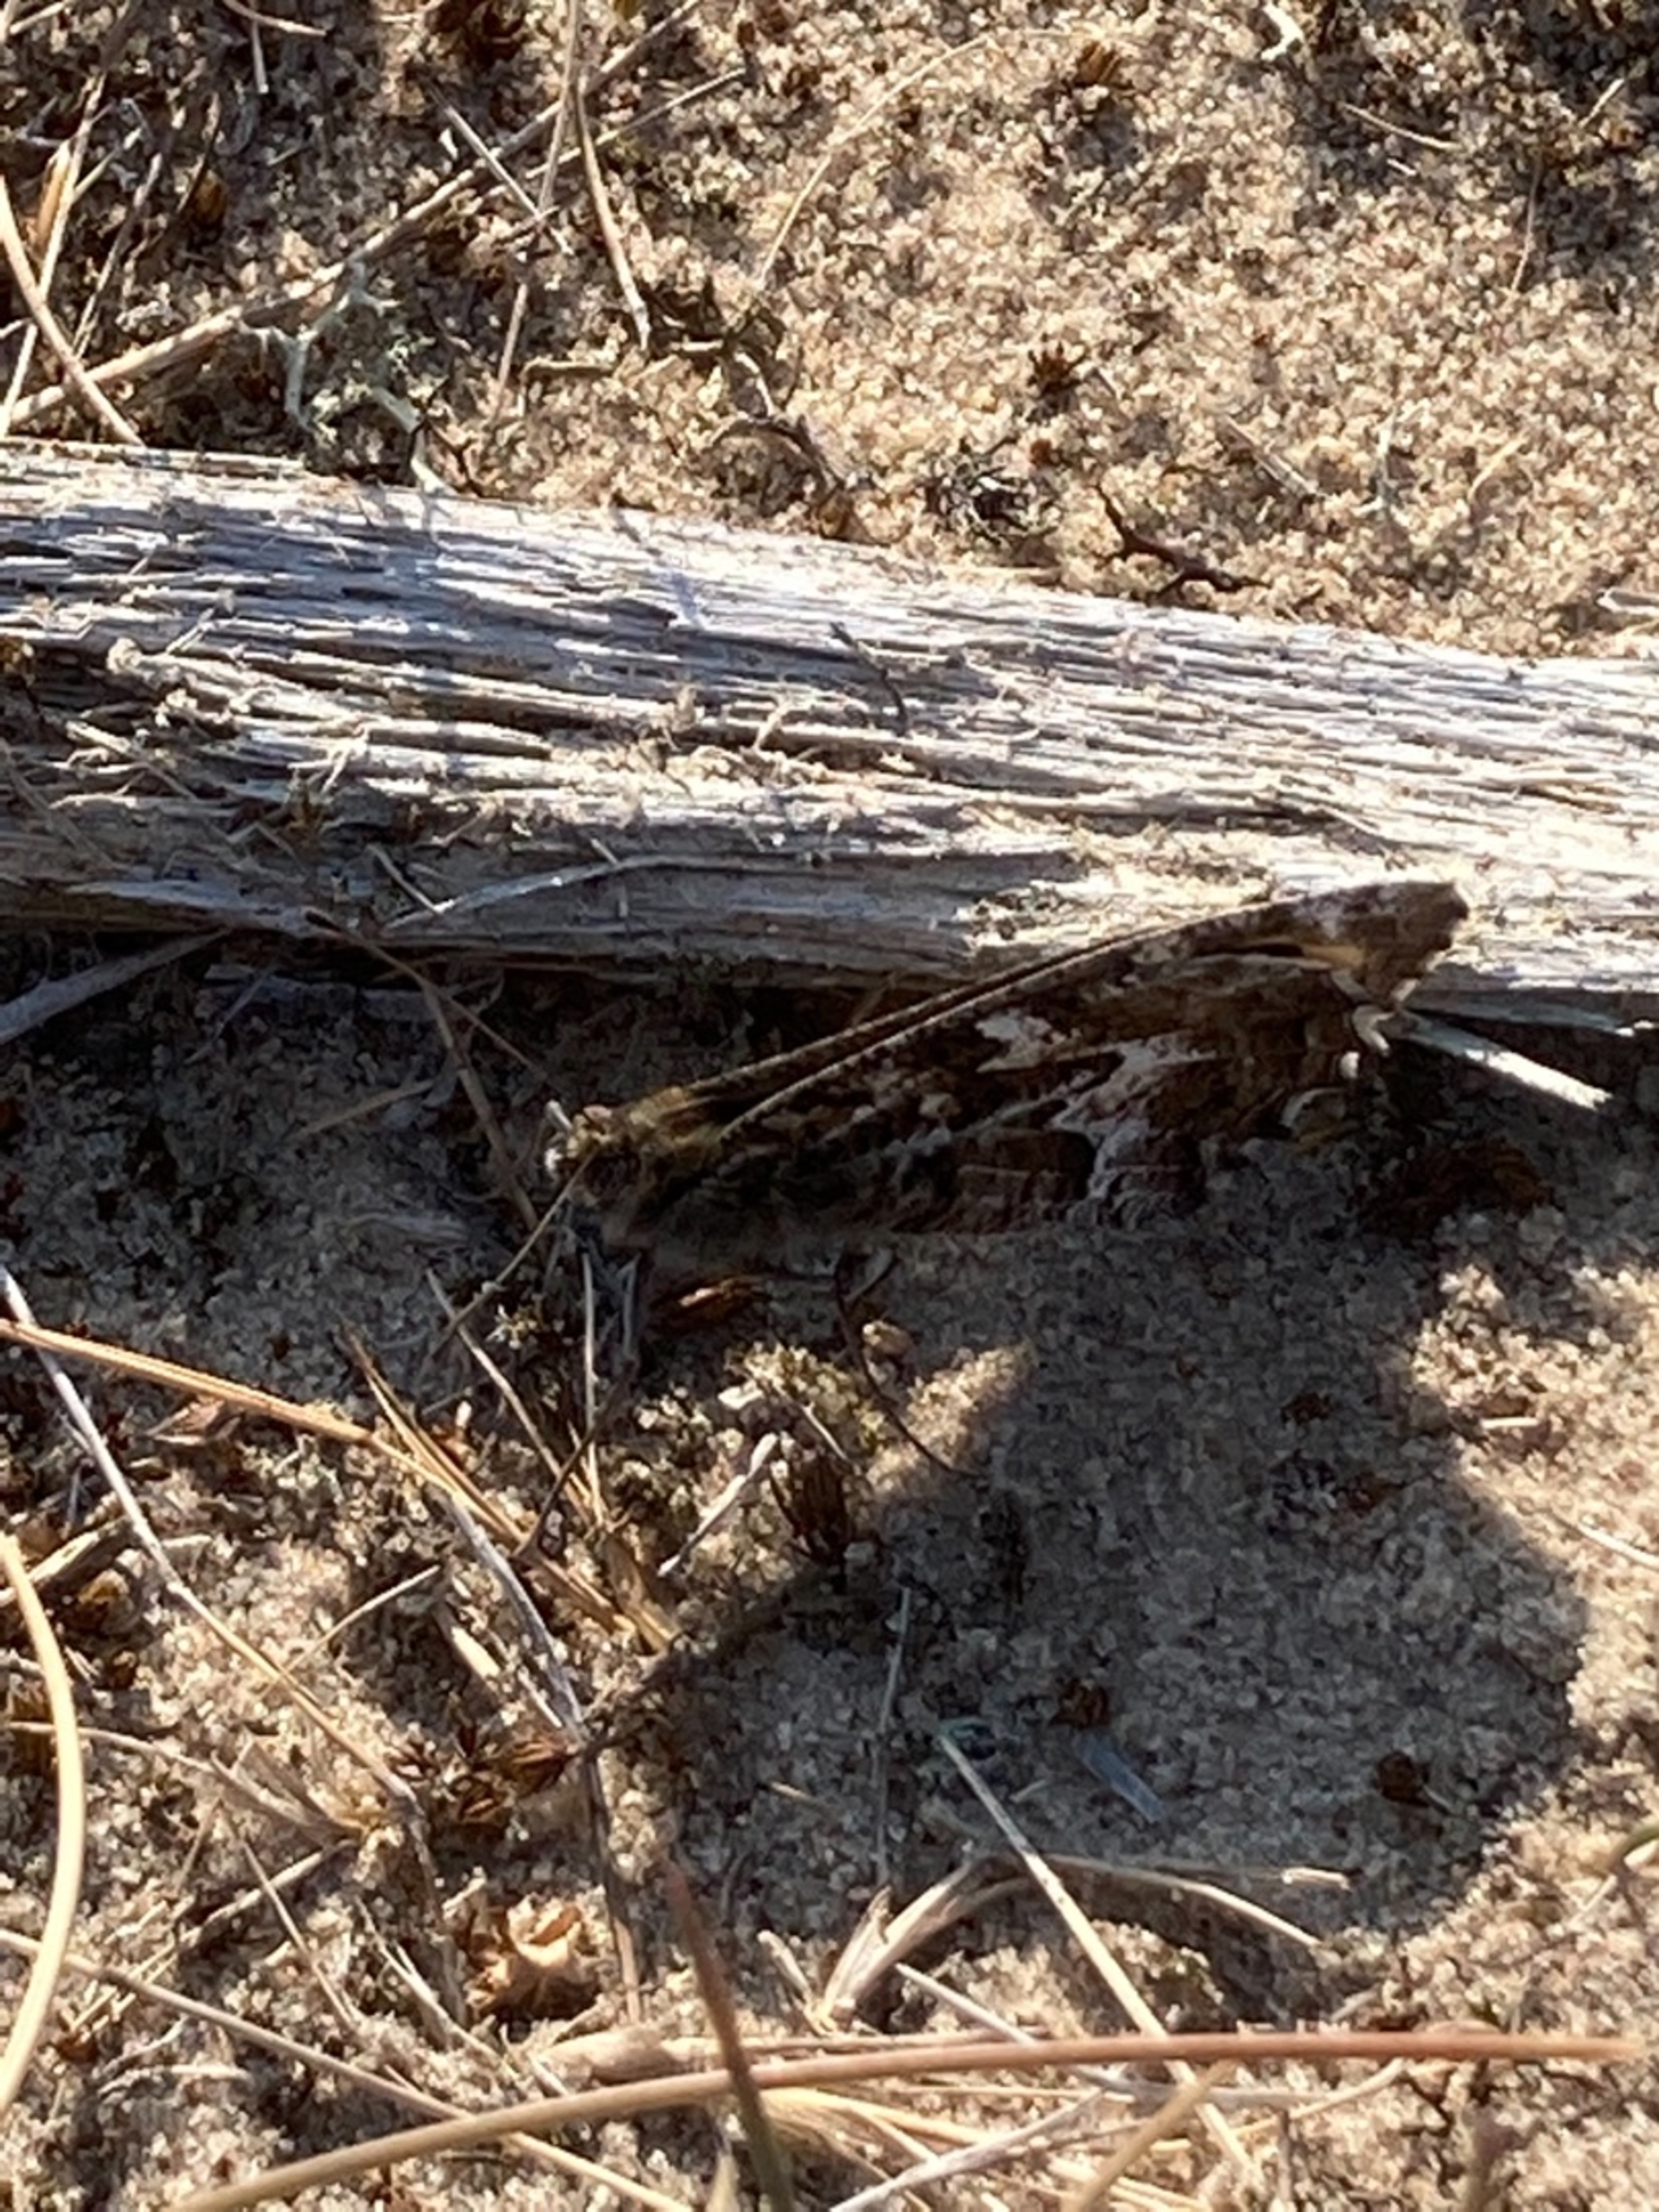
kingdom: Animalia
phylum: Arthropoda
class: Insecta
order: Lepidoptera
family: Nymphalidae
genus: Hipparchia
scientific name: Hipparchia semele
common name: Sandrandøje
